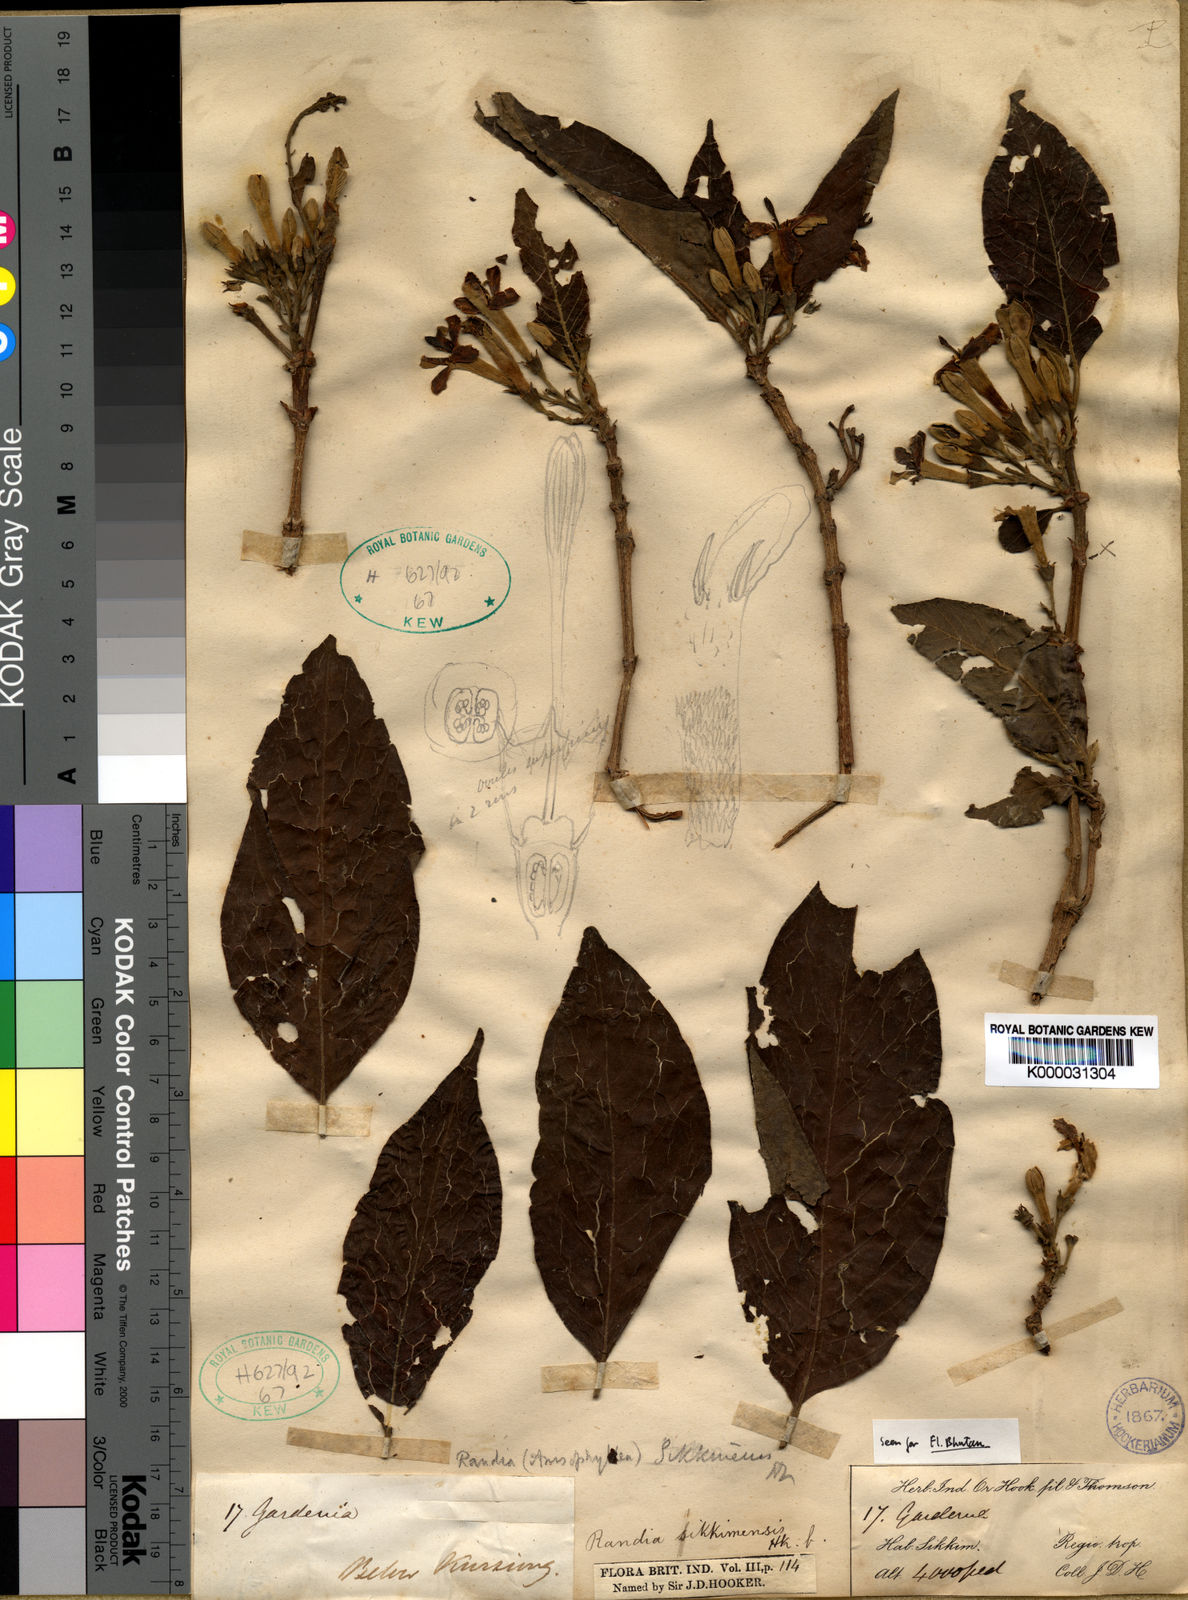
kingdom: Plantae
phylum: Tracheophyta
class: Magnoliopsida
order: Gentianales
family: Rubiaceae
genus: Porterandia
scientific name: Porterandia
